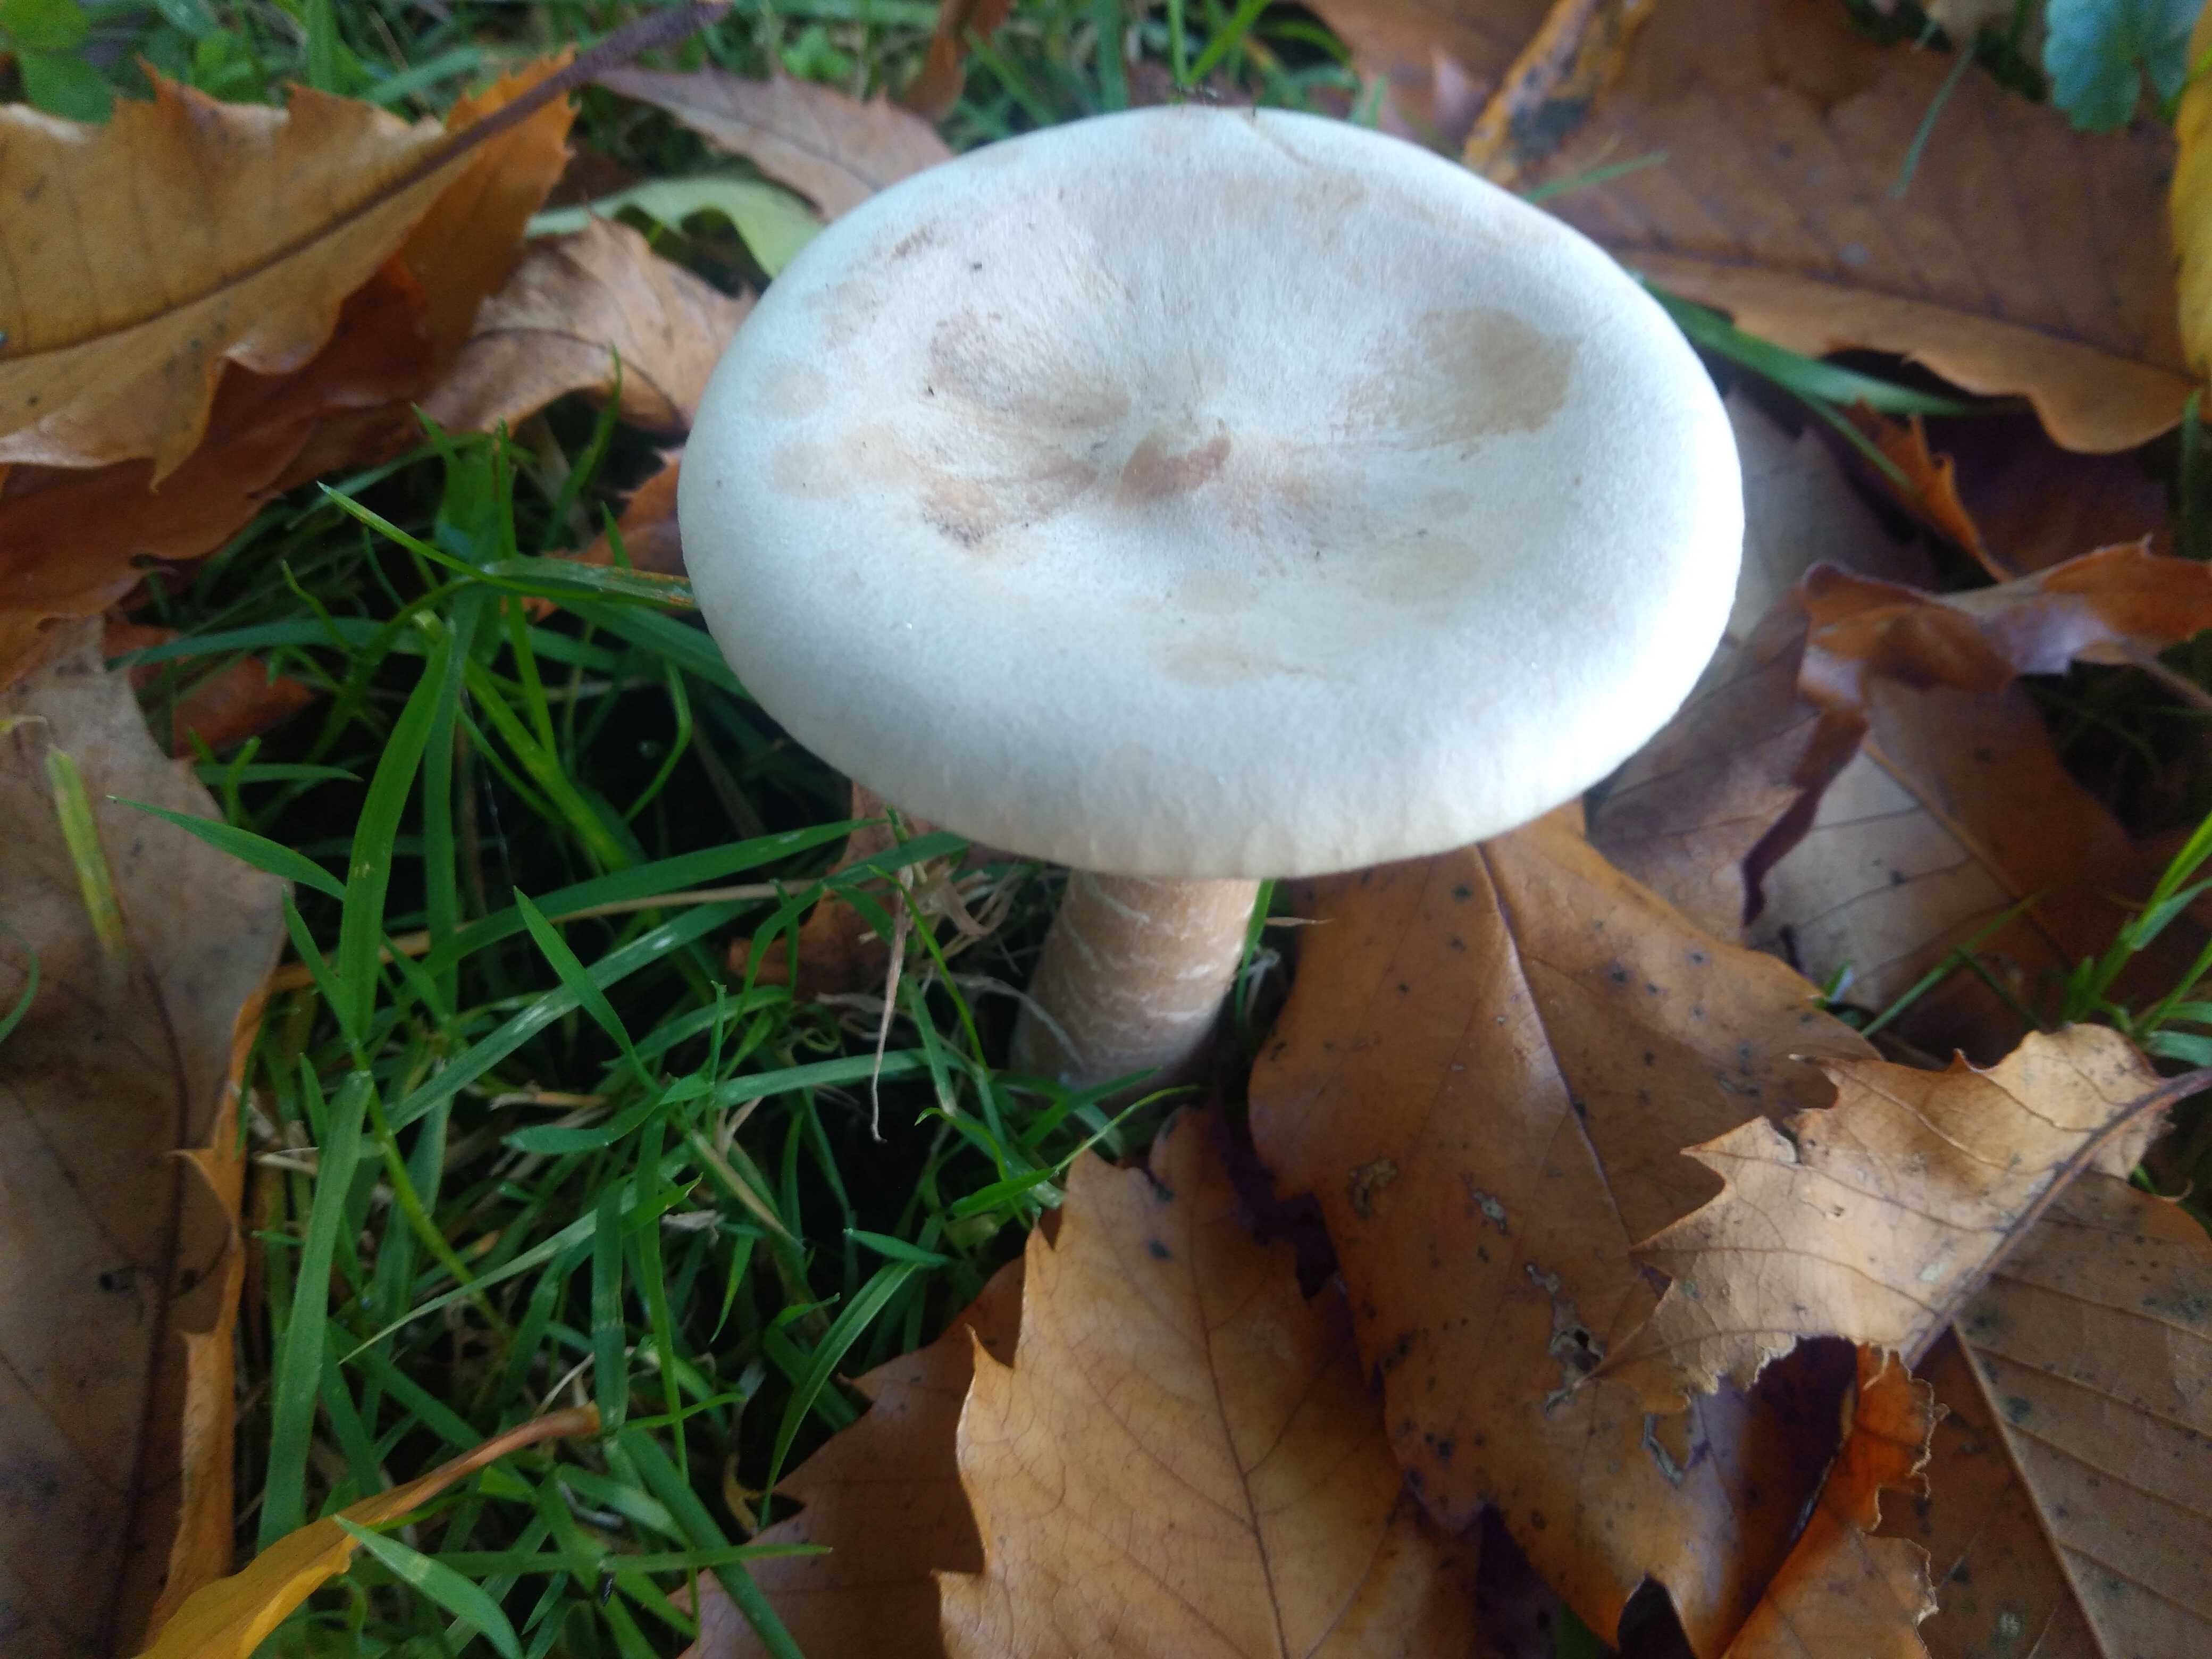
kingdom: Fungi
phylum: Basidiomycota
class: Agaricomycetes
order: Agaricales
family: Tricholomataceae
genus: Infundibulicybe
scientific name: Infundibulicybe geotropa
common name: stor tragthat
